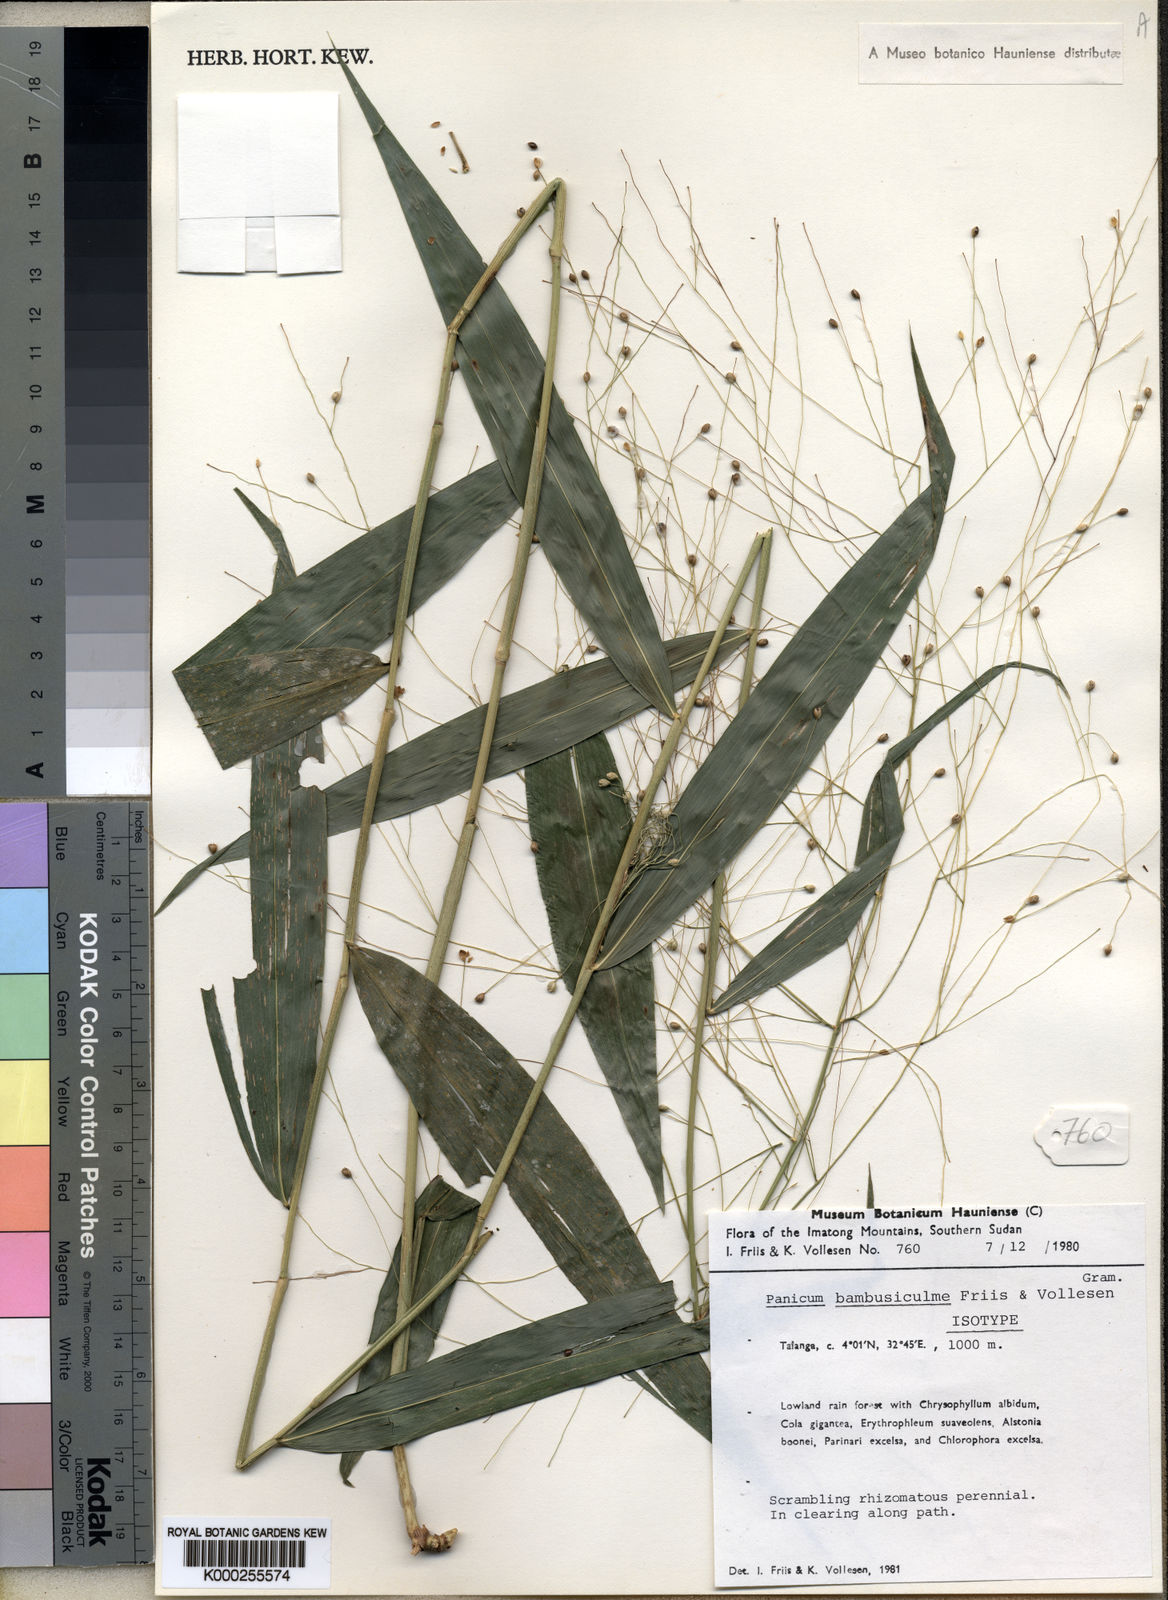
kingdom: Plantae
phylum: Tracheophyta
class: Liliopsida
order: Poales
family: Poaceae
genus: Panicum
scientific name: Panicum brevifolium
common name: Shortleaf panic grass
